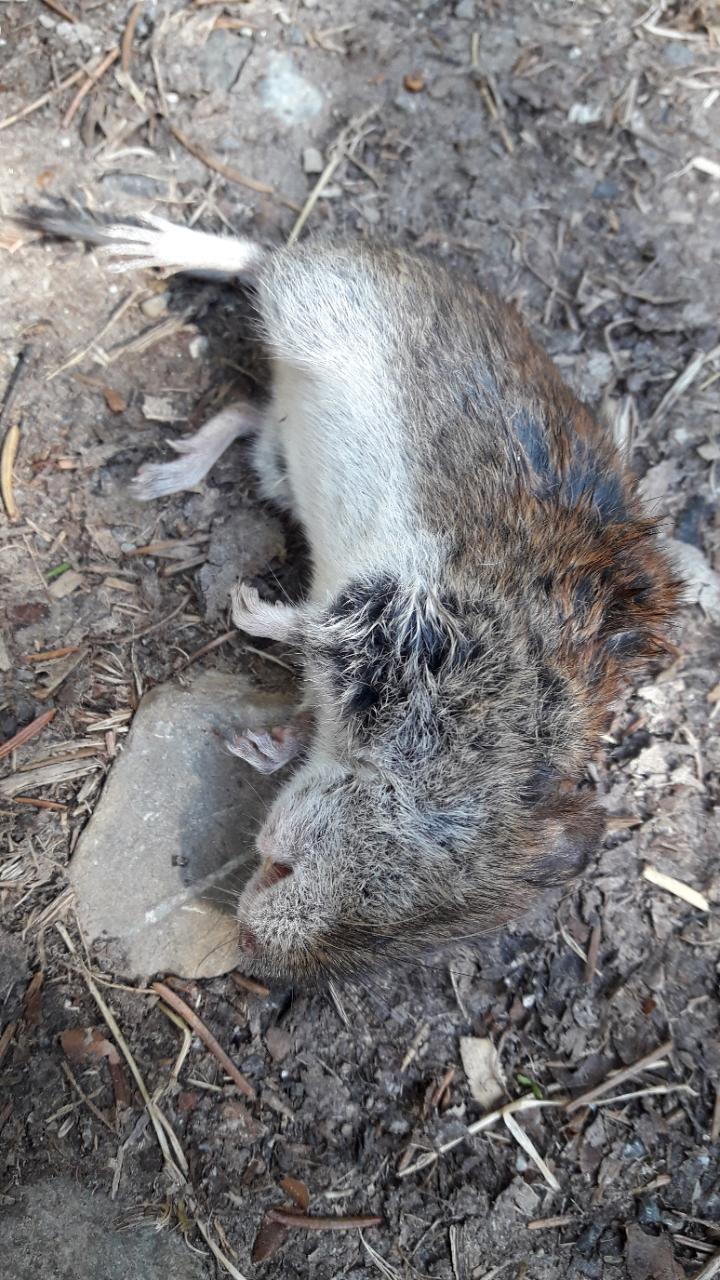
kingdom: Animalia
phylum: Chordata
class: Mammalia
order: Rodentia
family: Cricetidae
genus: Myodes
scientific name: Myodes glareolus
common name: Bank vole
